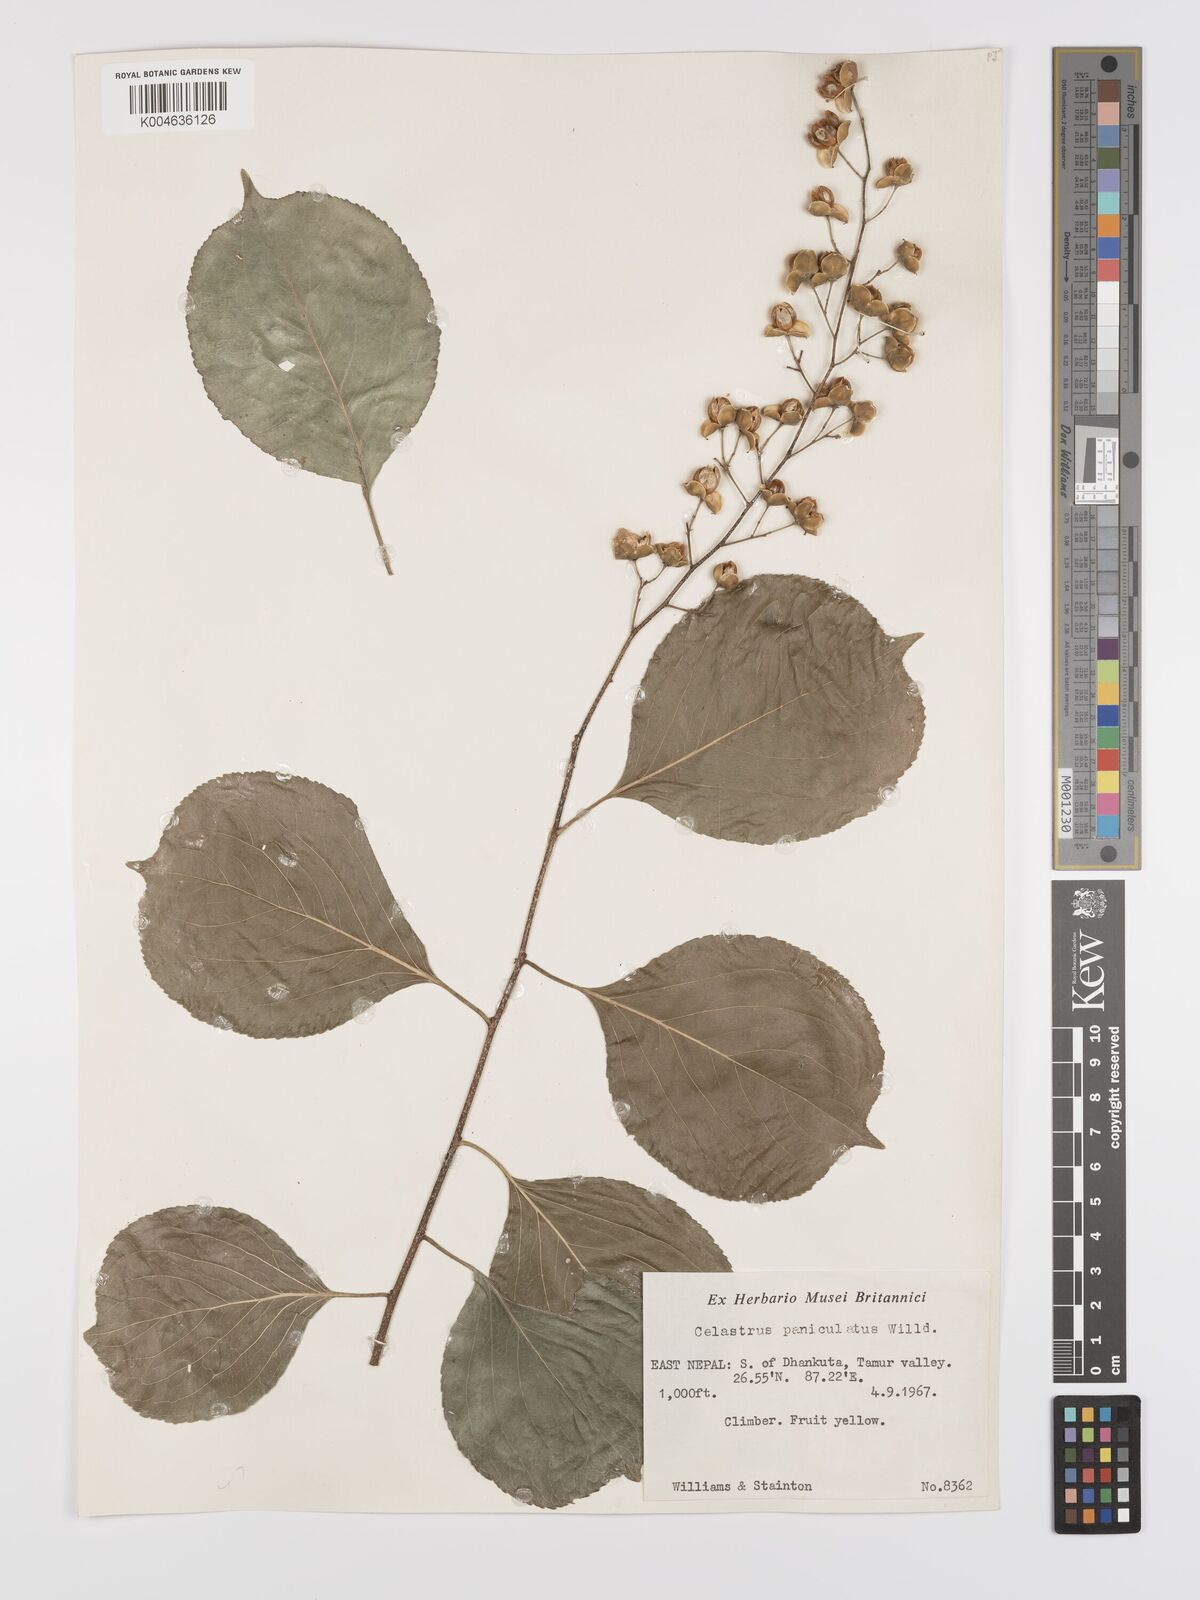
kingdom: Plantae
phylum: Tracheophyta
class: Magnoliopsida
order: Celastrales
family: Celastraceae
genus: Celastrus
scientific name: Celastrus paniculatus
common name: Oriental bittersweet; staff vine
